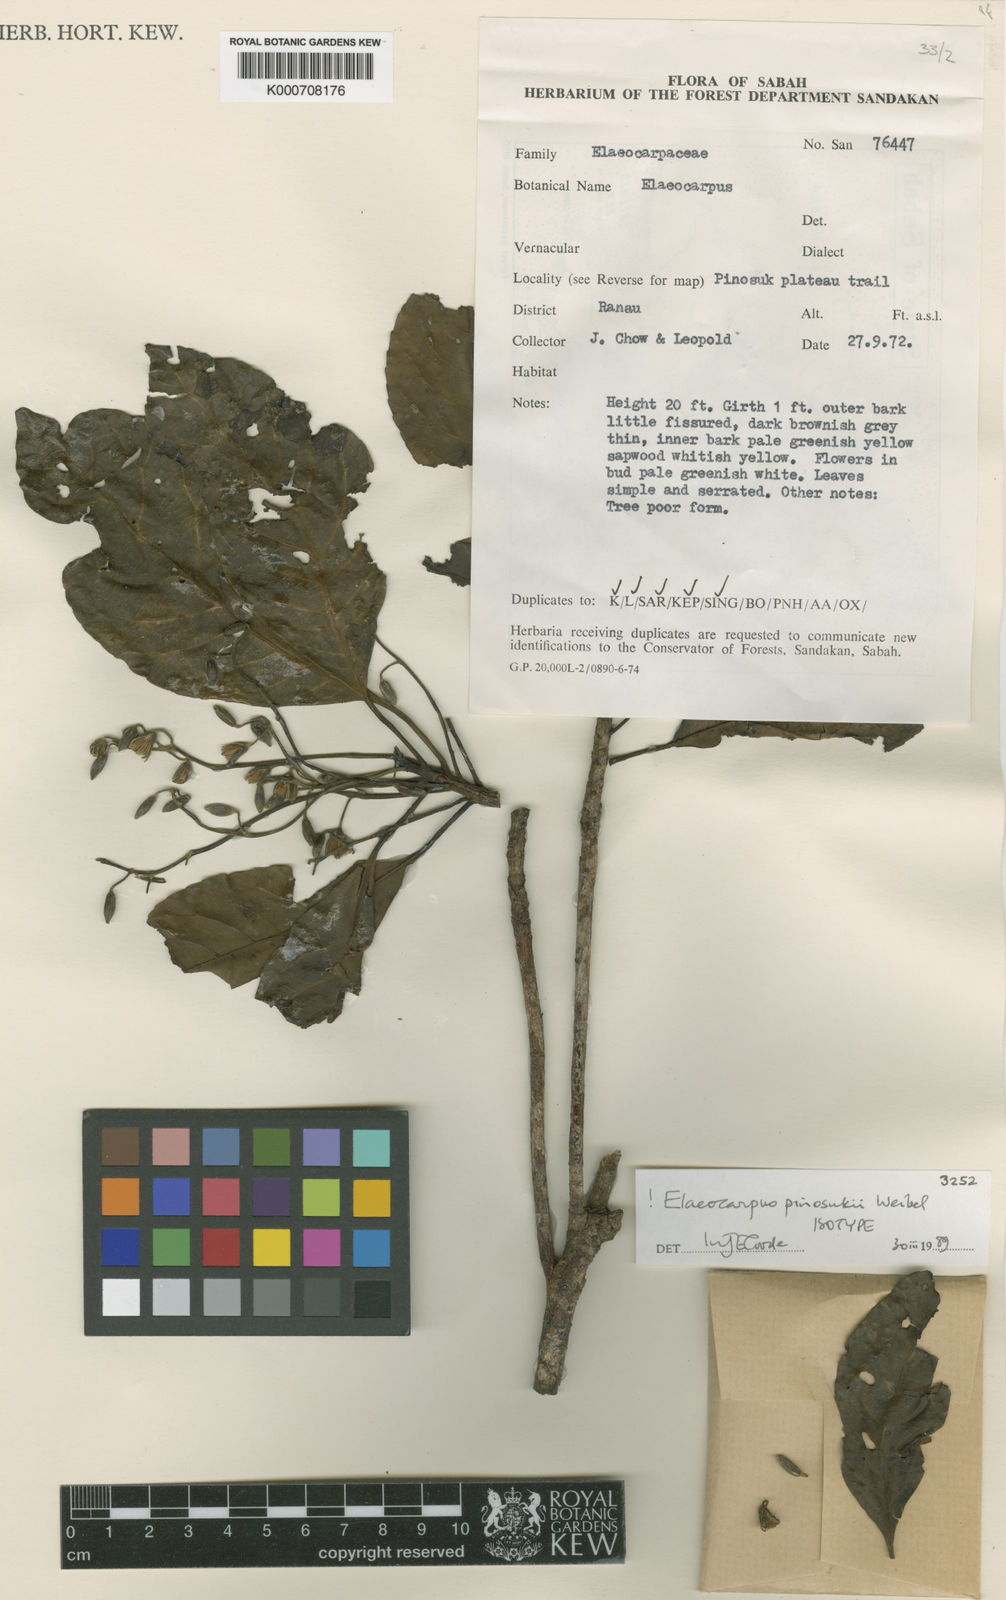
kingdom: Plantae
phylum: Tracheophyta
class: Magnoliopsida
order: Oxalidales
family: Elaeocarpaceae
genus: Elaeocarpus
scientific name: Elaeocarpus pinosukii
